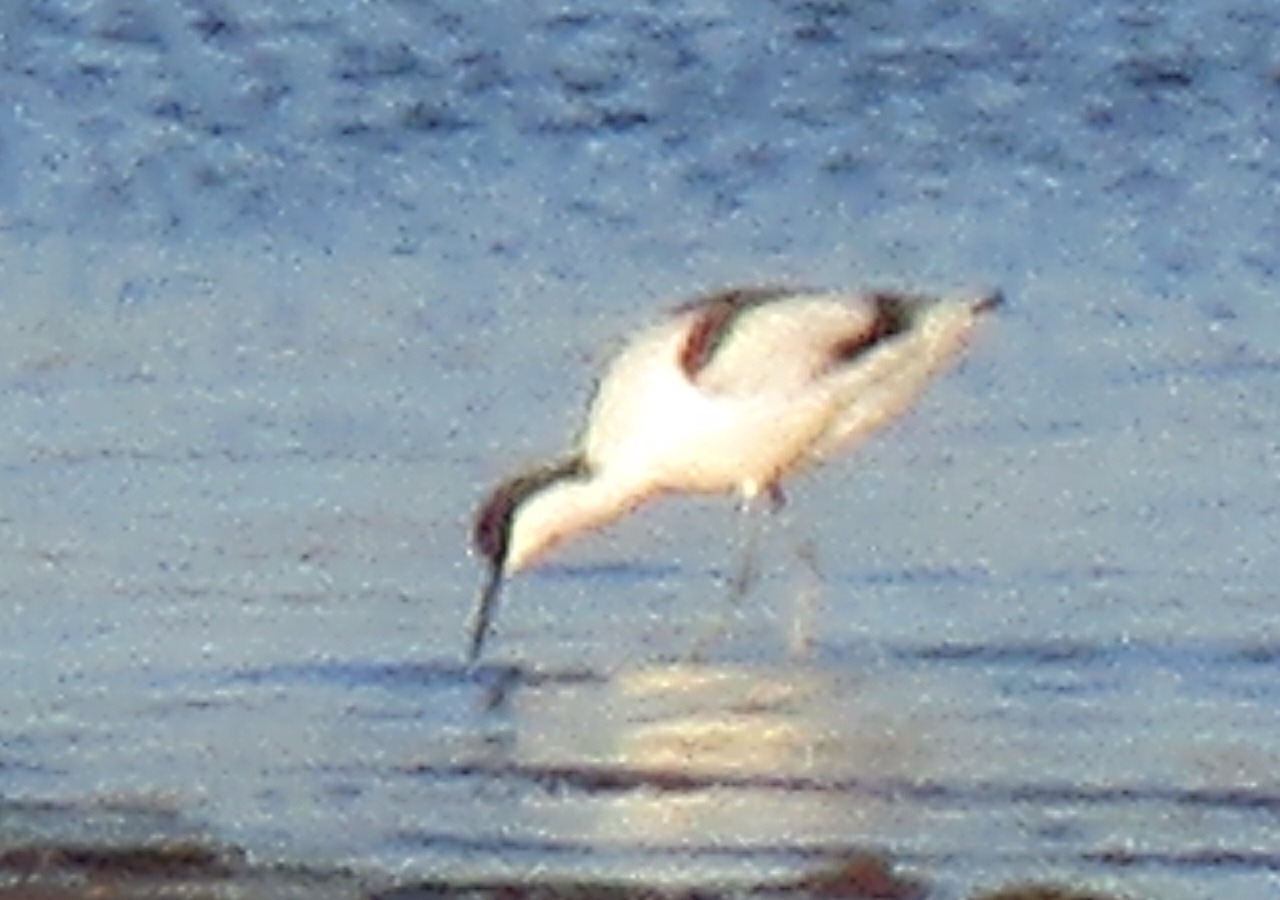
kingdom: Animalia
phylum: Chordata
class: Aves
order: Charadriiformes
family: Recurvirostridae
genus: Recurvirostra
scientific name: Recurvirostra avosetta
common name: Klyde
